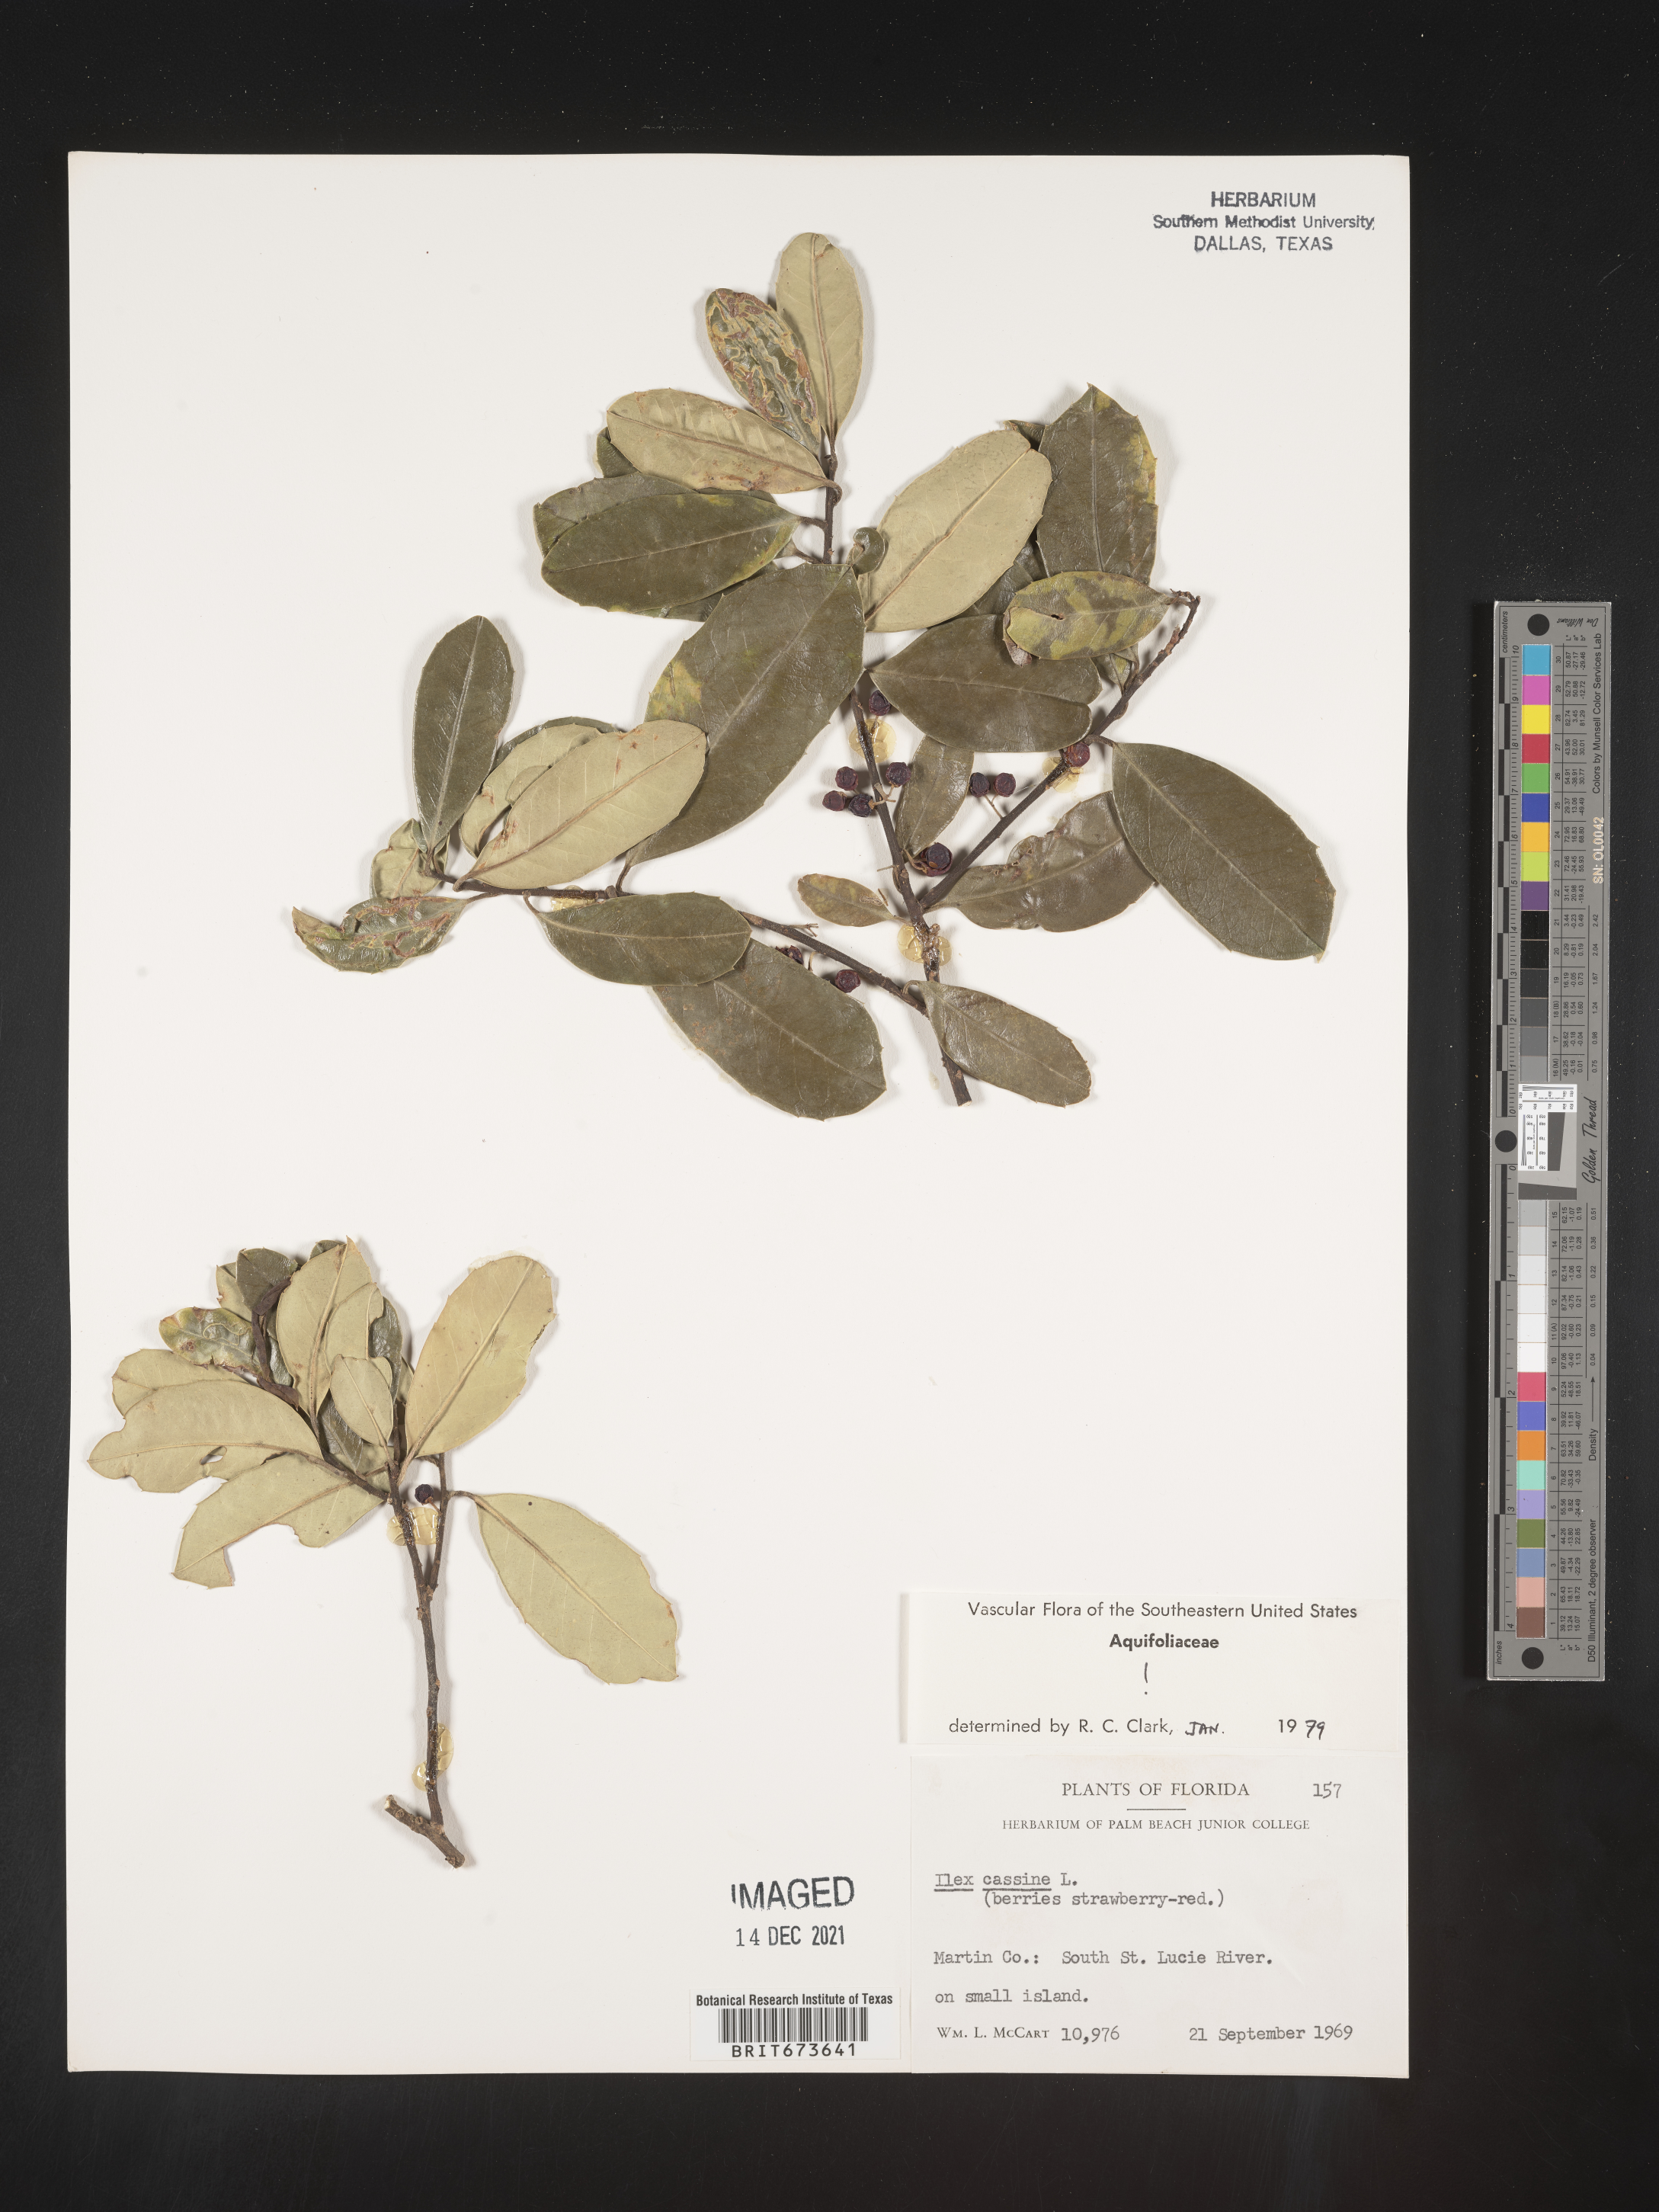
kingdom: Plantae
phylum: Tracheophyta
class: Magnoliopsida
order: Aquifoliales
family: Aquifoliaceae
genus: Ilex
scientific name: Ilex cassine
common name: Dahoon
